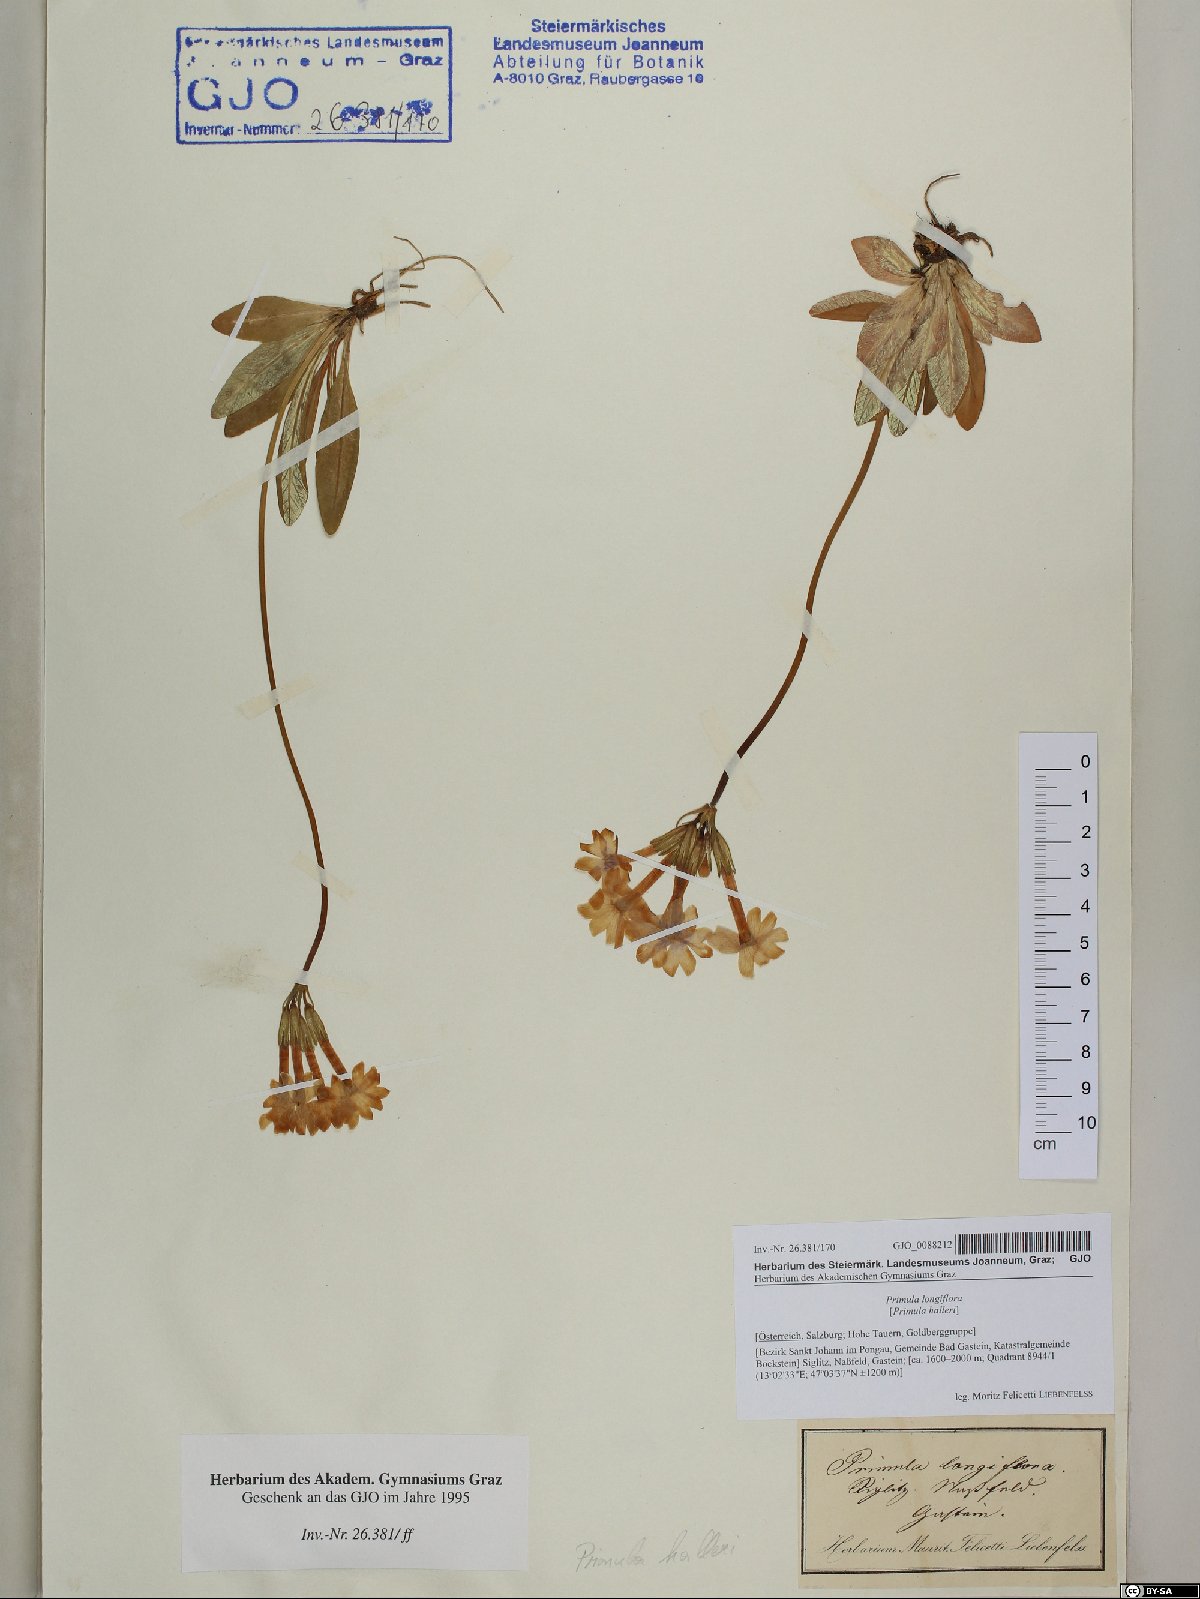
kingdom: Plantae
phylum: Tracheophyta
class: Magnoliopsida
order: Ericales
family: Primulaceae
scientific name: Primulaceae
